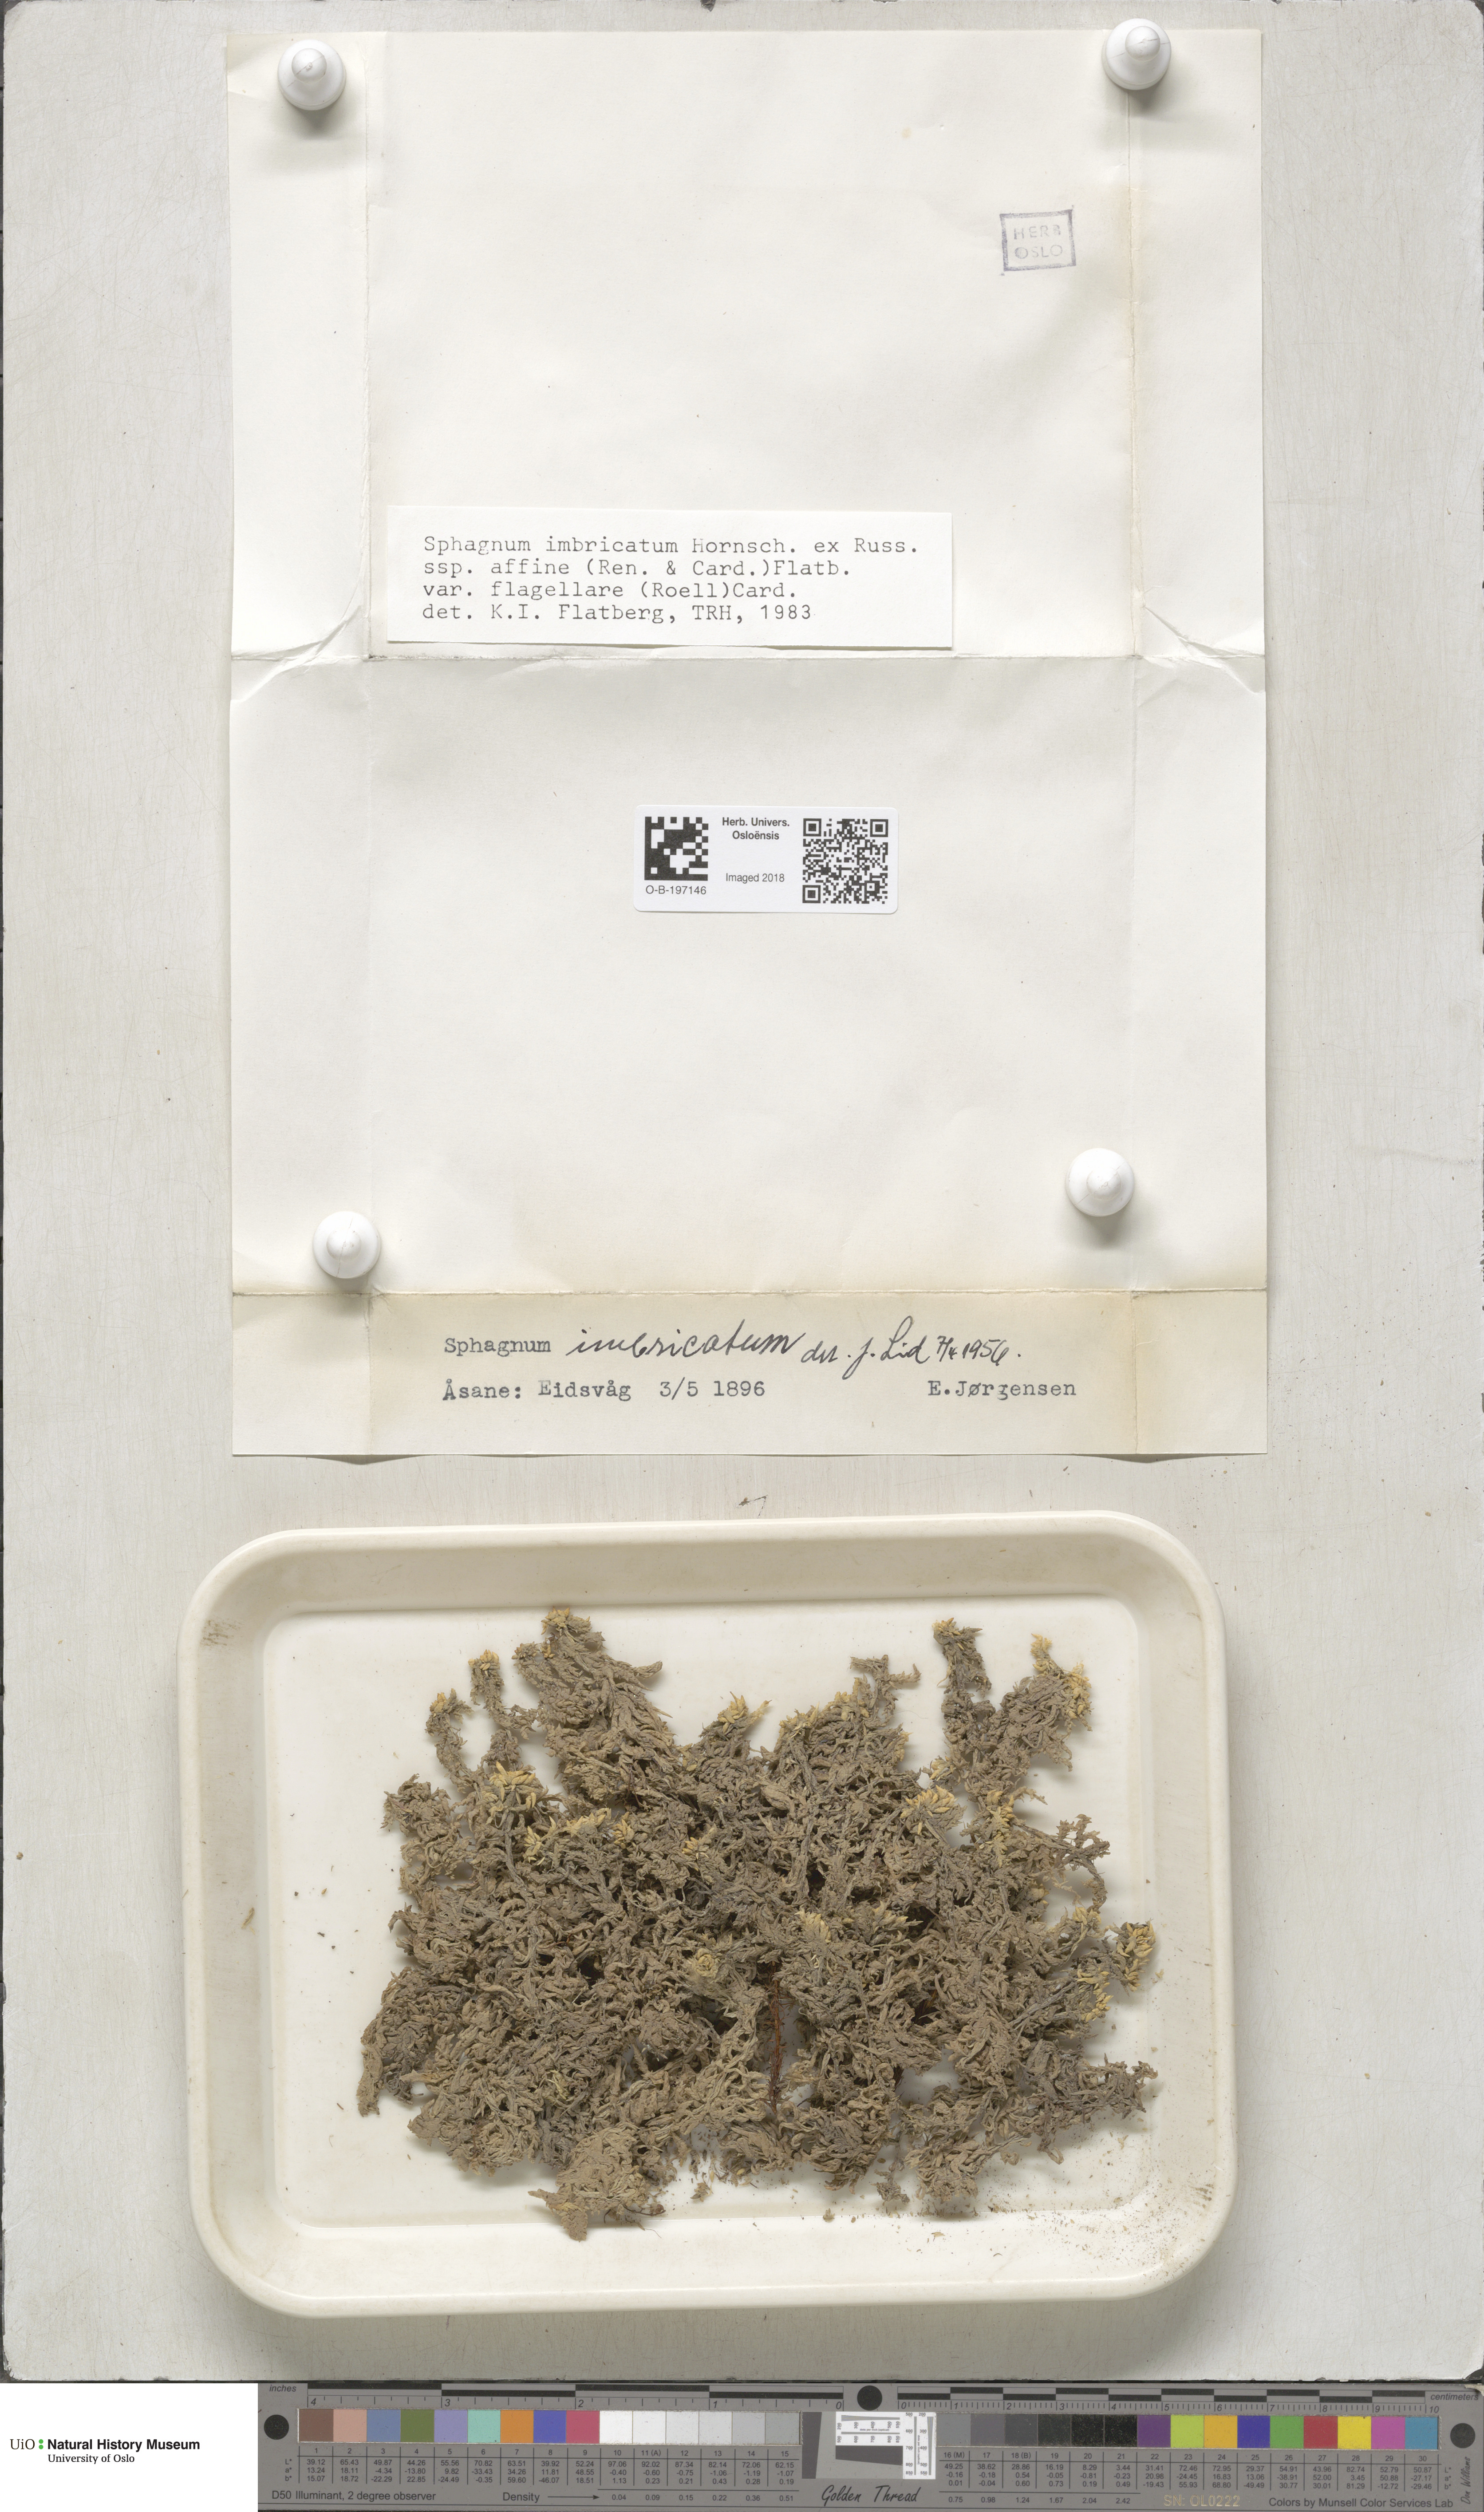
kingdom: Plantae
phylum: Bryophyta
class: Sphagnopsida
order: Sphagnales
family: Sphagnaceae
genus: Sphagnum
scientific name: Sphagnum affine
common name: Imbricate peat moss
